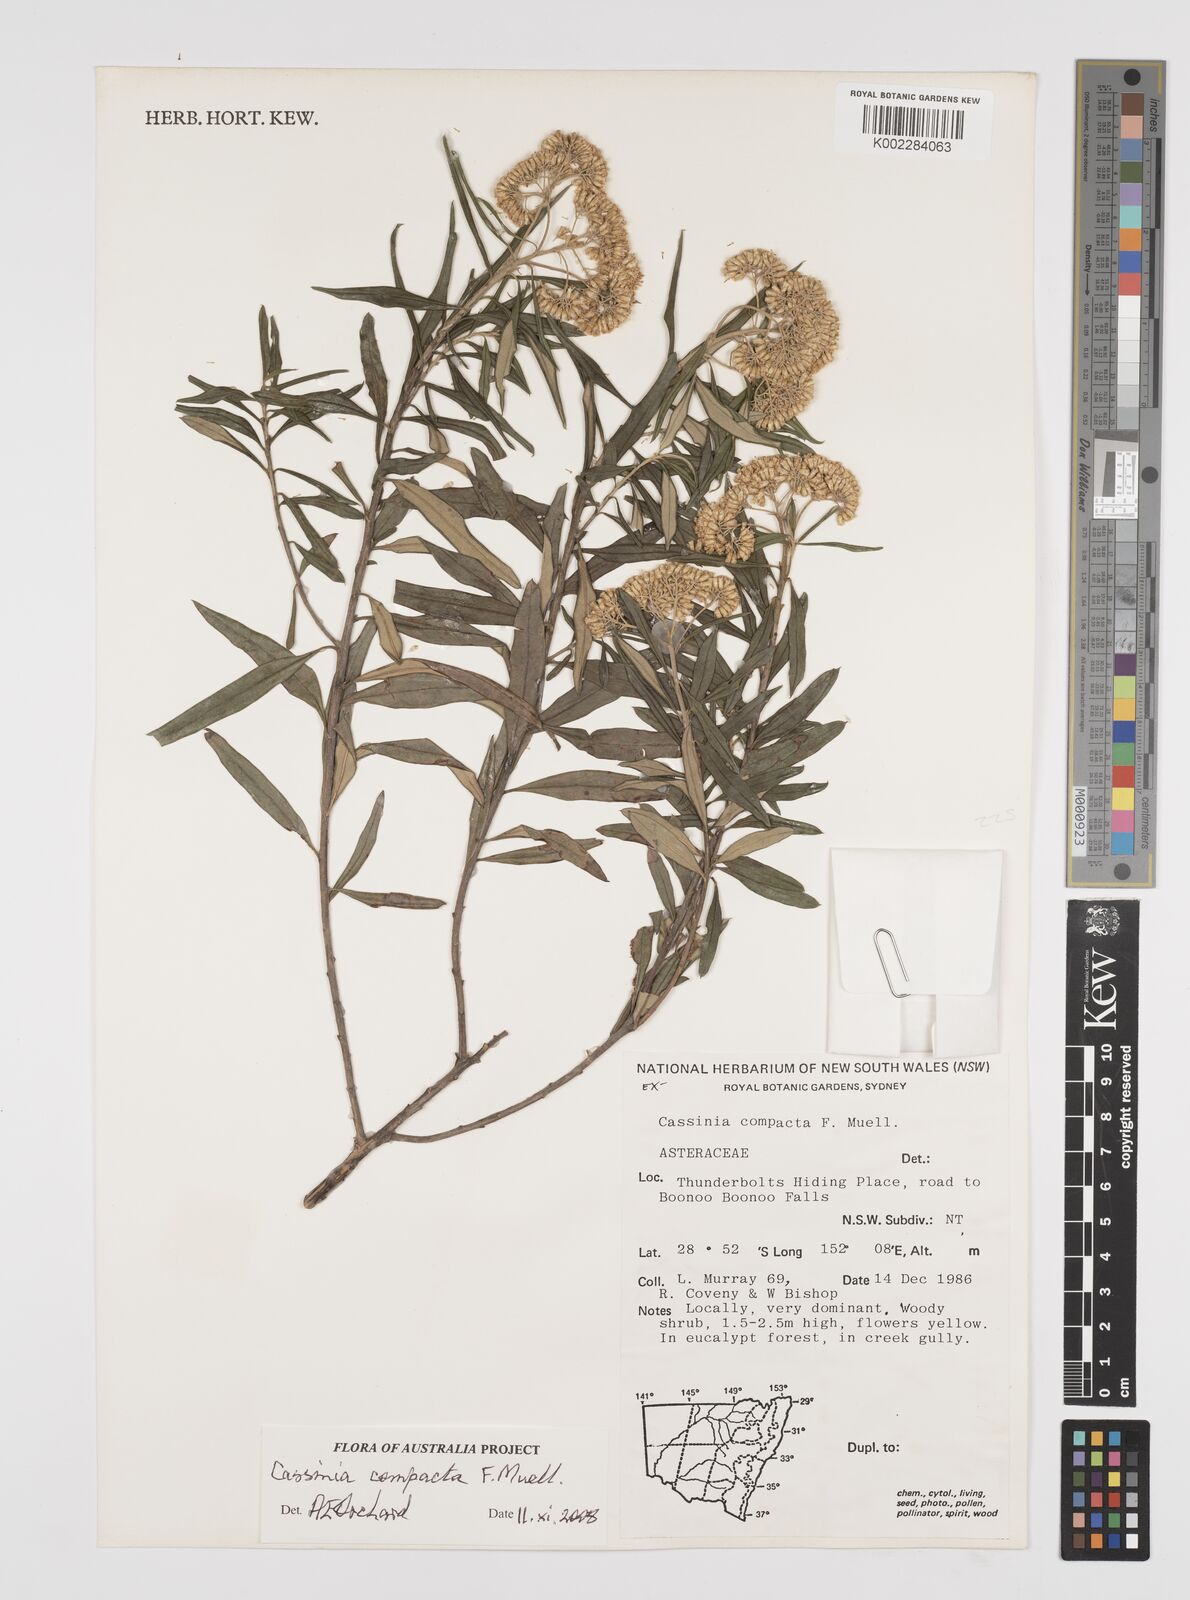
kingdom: Plantae
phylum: Tracheophyta
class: Magnoliopsida
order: Asterales
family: Asteraceae
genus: Cassinia
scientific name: Cassinia compacta
